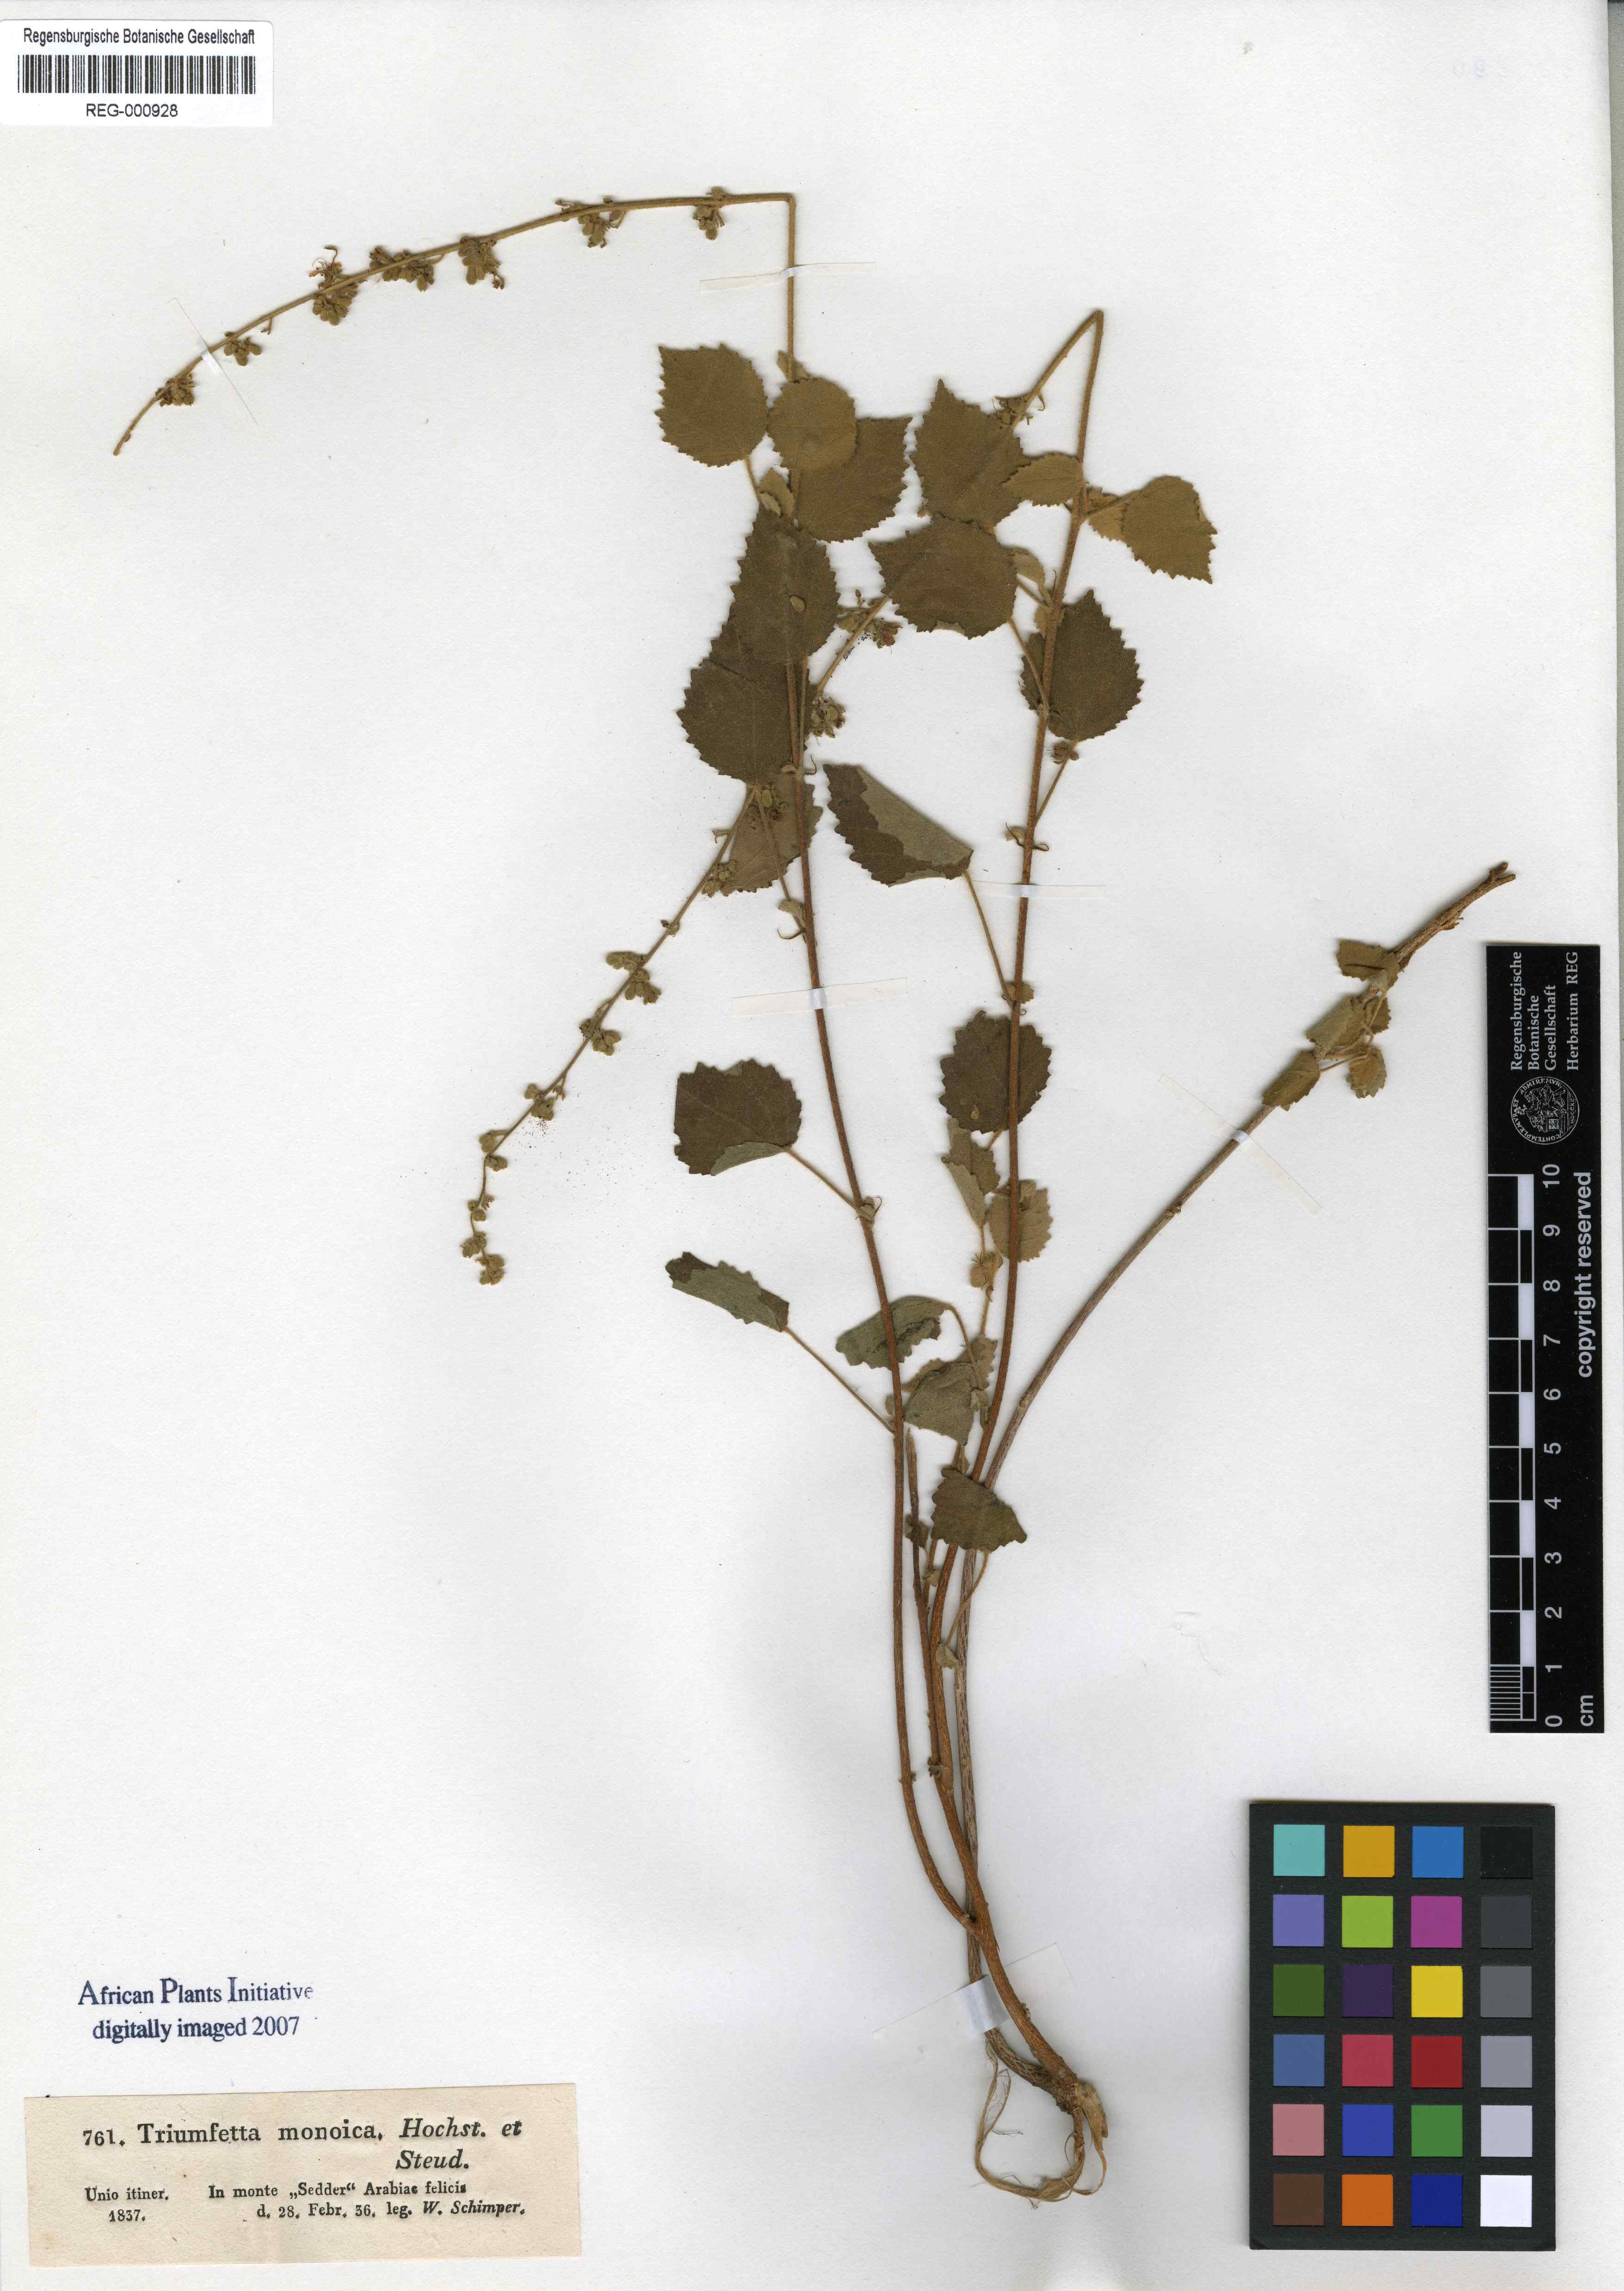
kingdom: Plantae
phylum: Tracheophyta
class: Magnoliopsida
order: Malvales
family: Malvaceae
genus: Triumfetta
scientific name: Triumfetta flavescens
